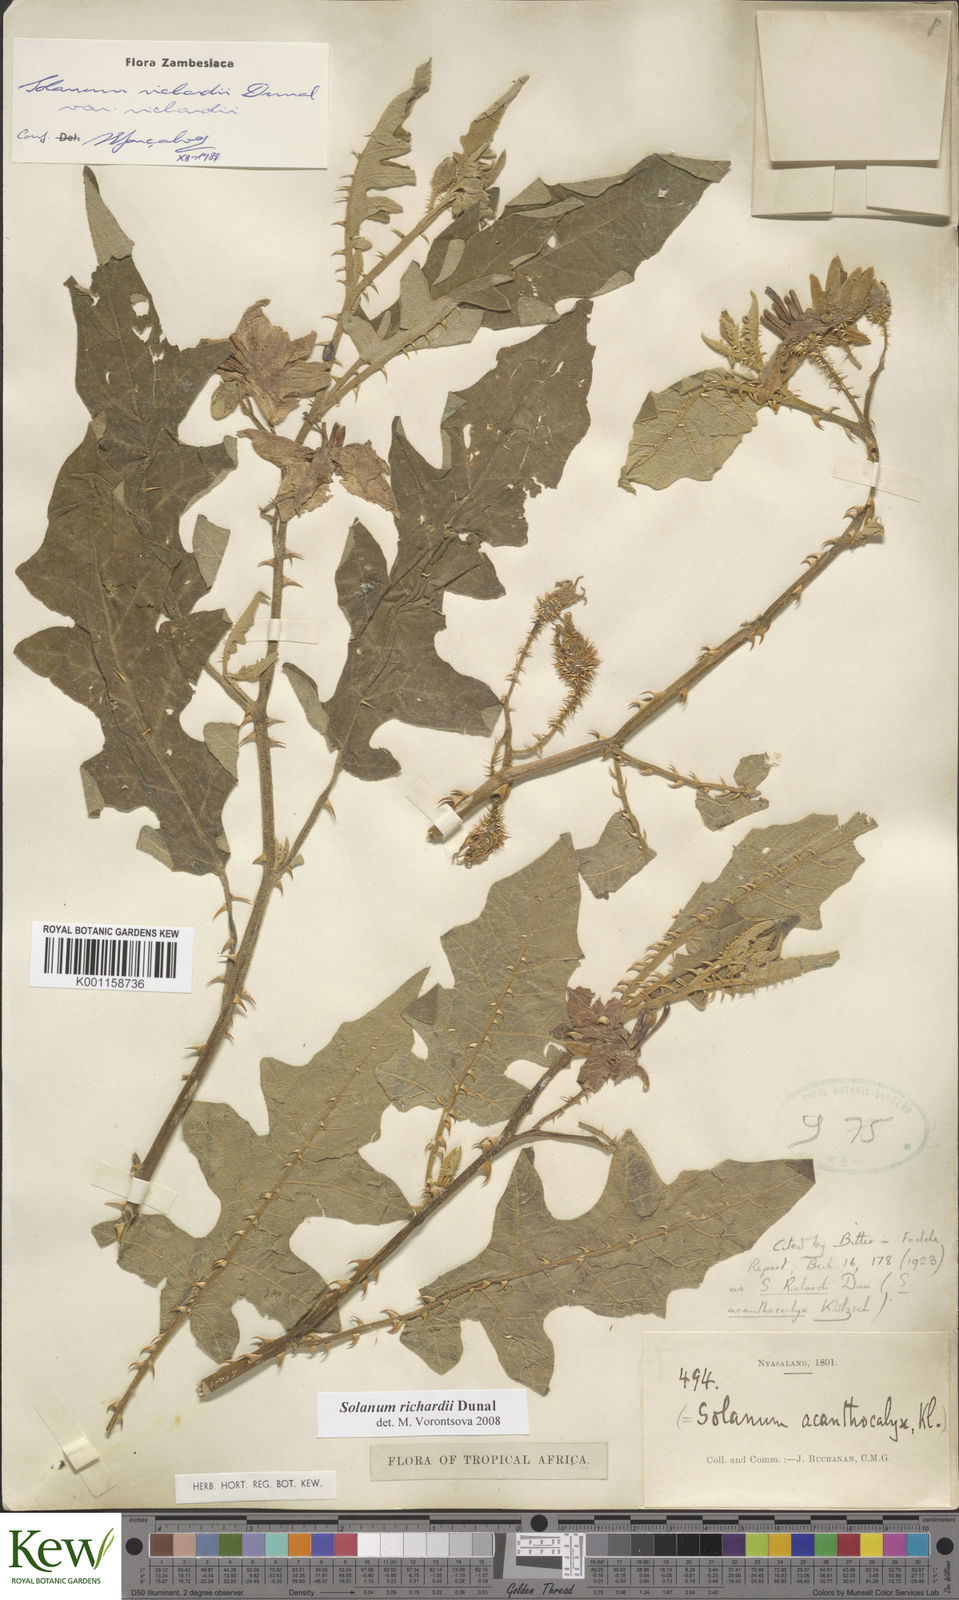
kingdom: Plantae
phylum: Tracheophyta
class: Magnoliopsida
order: Solanales
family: Solanaceae
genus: Solanum
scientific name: Solanum richardii
